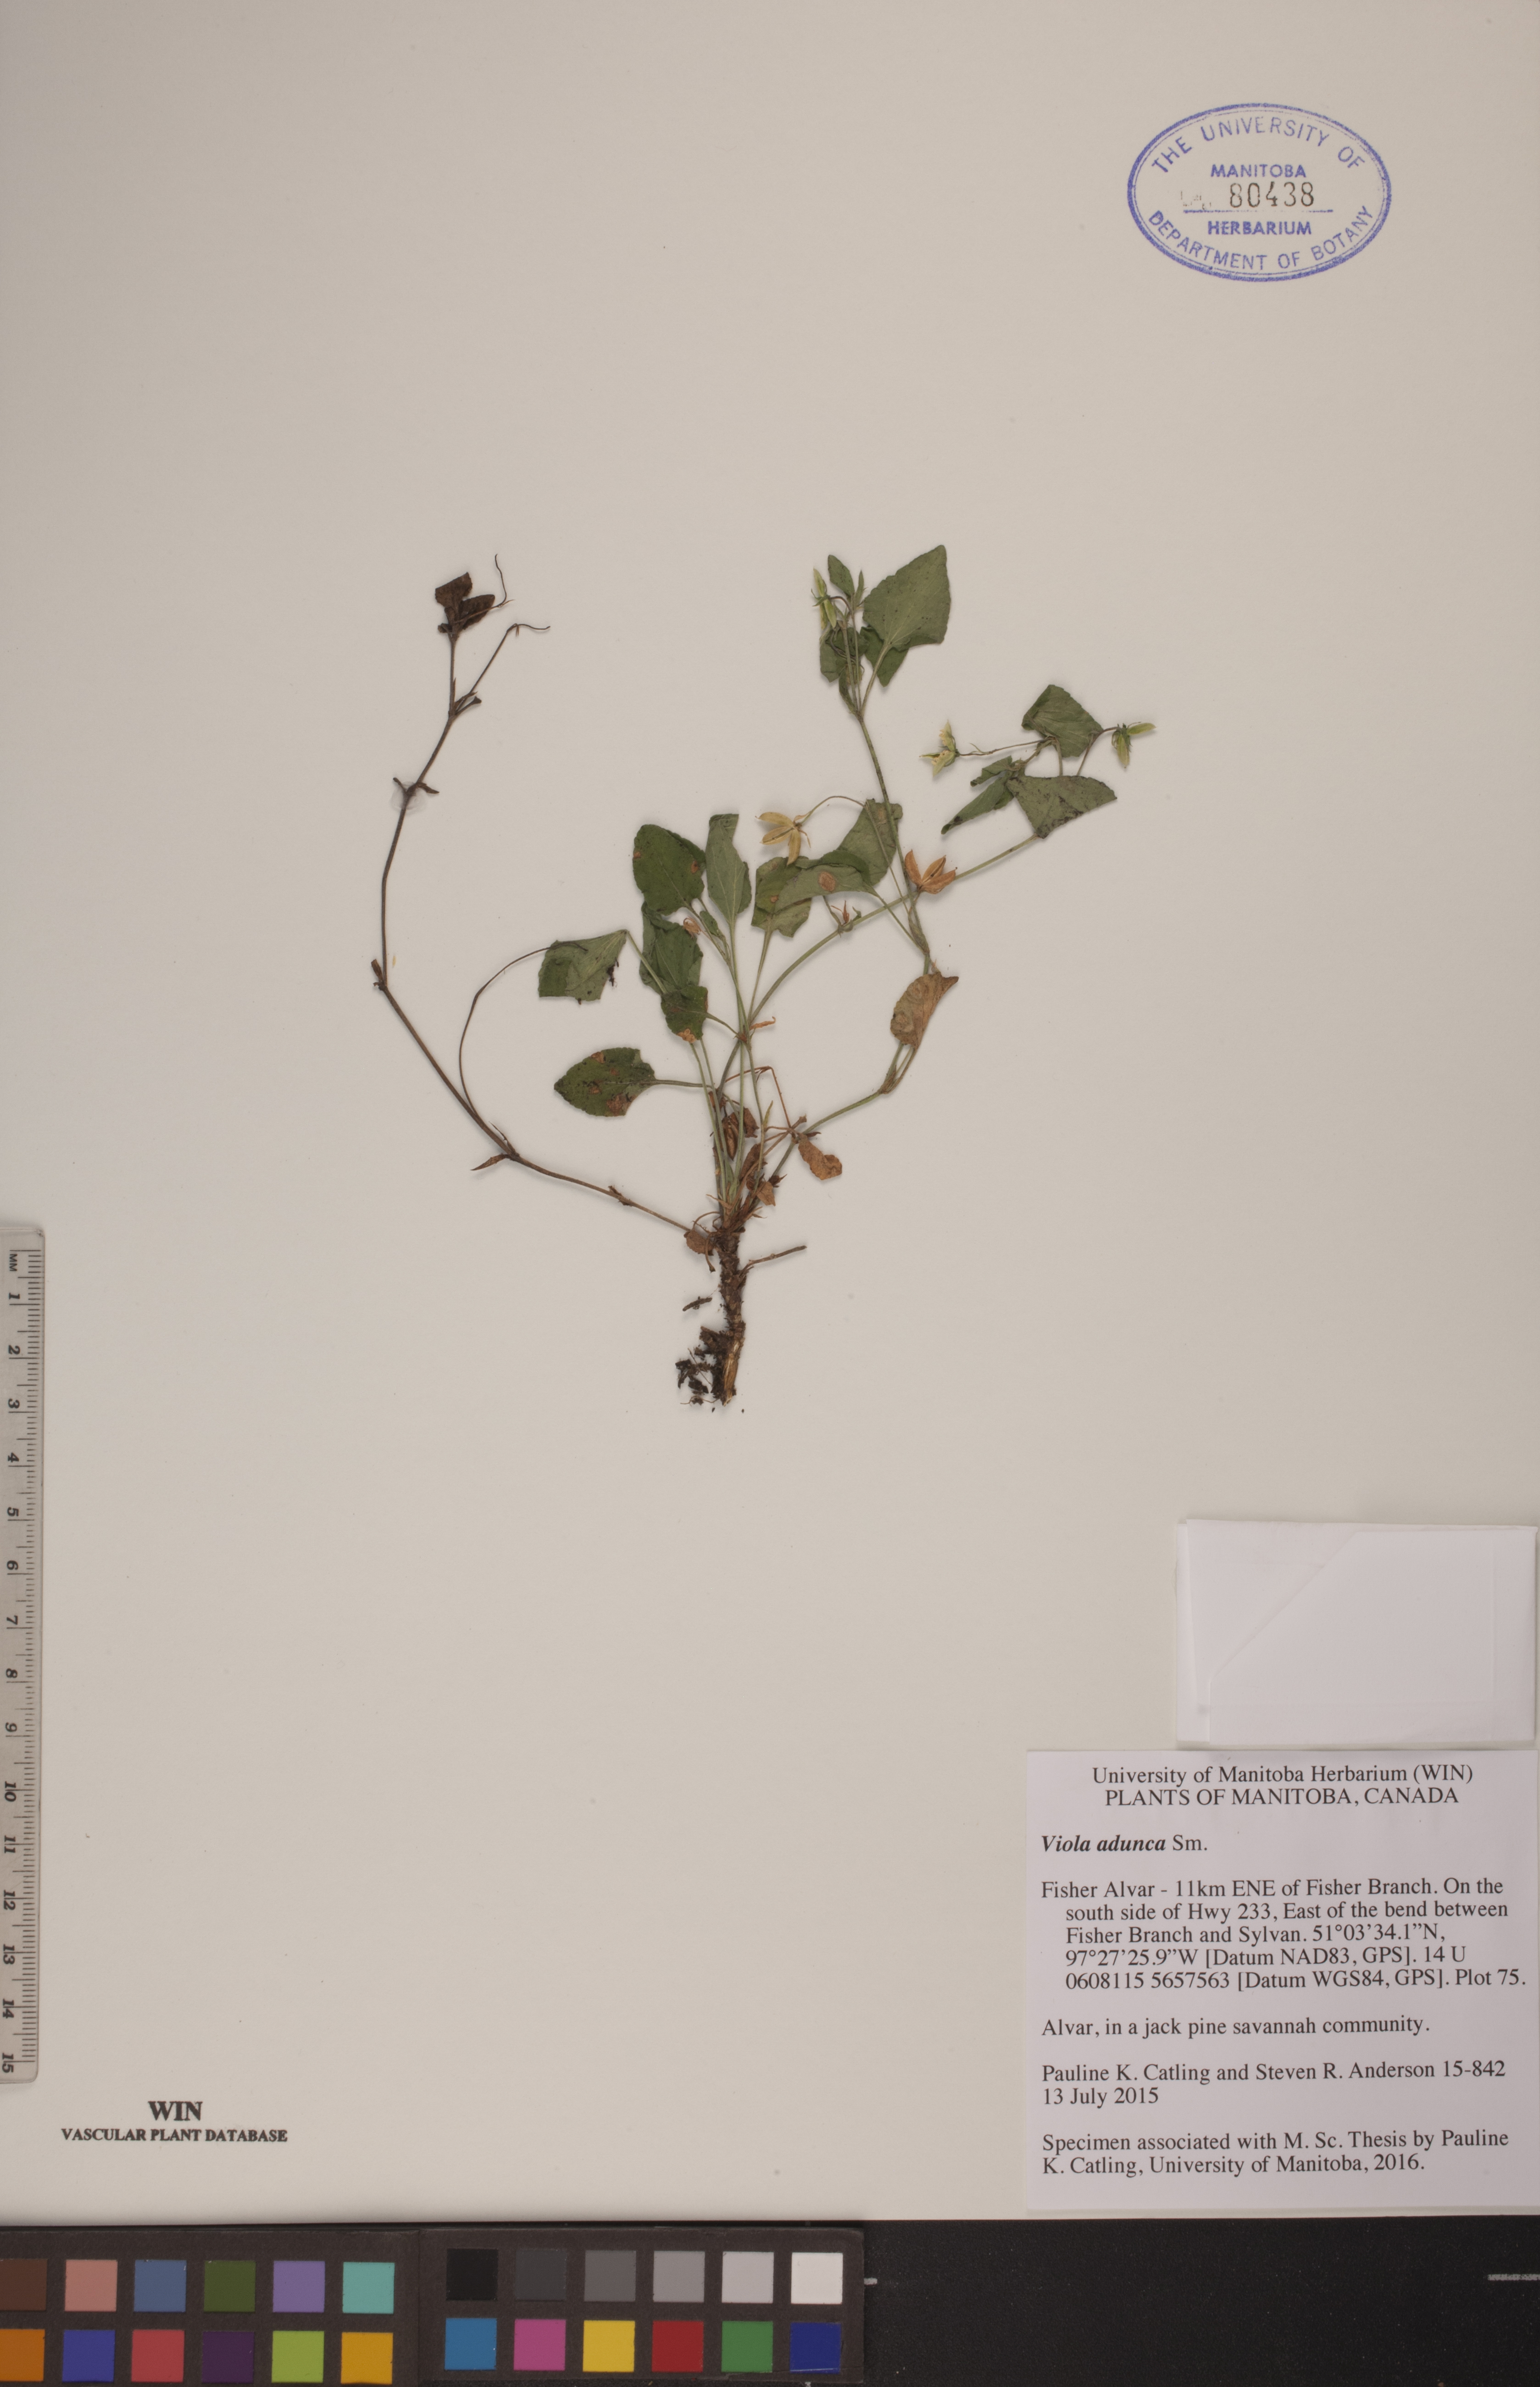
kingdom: Plantae
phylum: Tracheophyta
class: Magnoliopsida
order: Malpighiales
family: Violaceae
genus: Viola
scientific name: Viola adunca
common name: Sand violet
